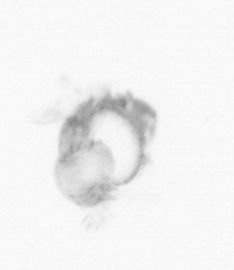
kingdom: Animalia
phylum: Annelida
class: Polychaeta
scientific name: Polychaeta
